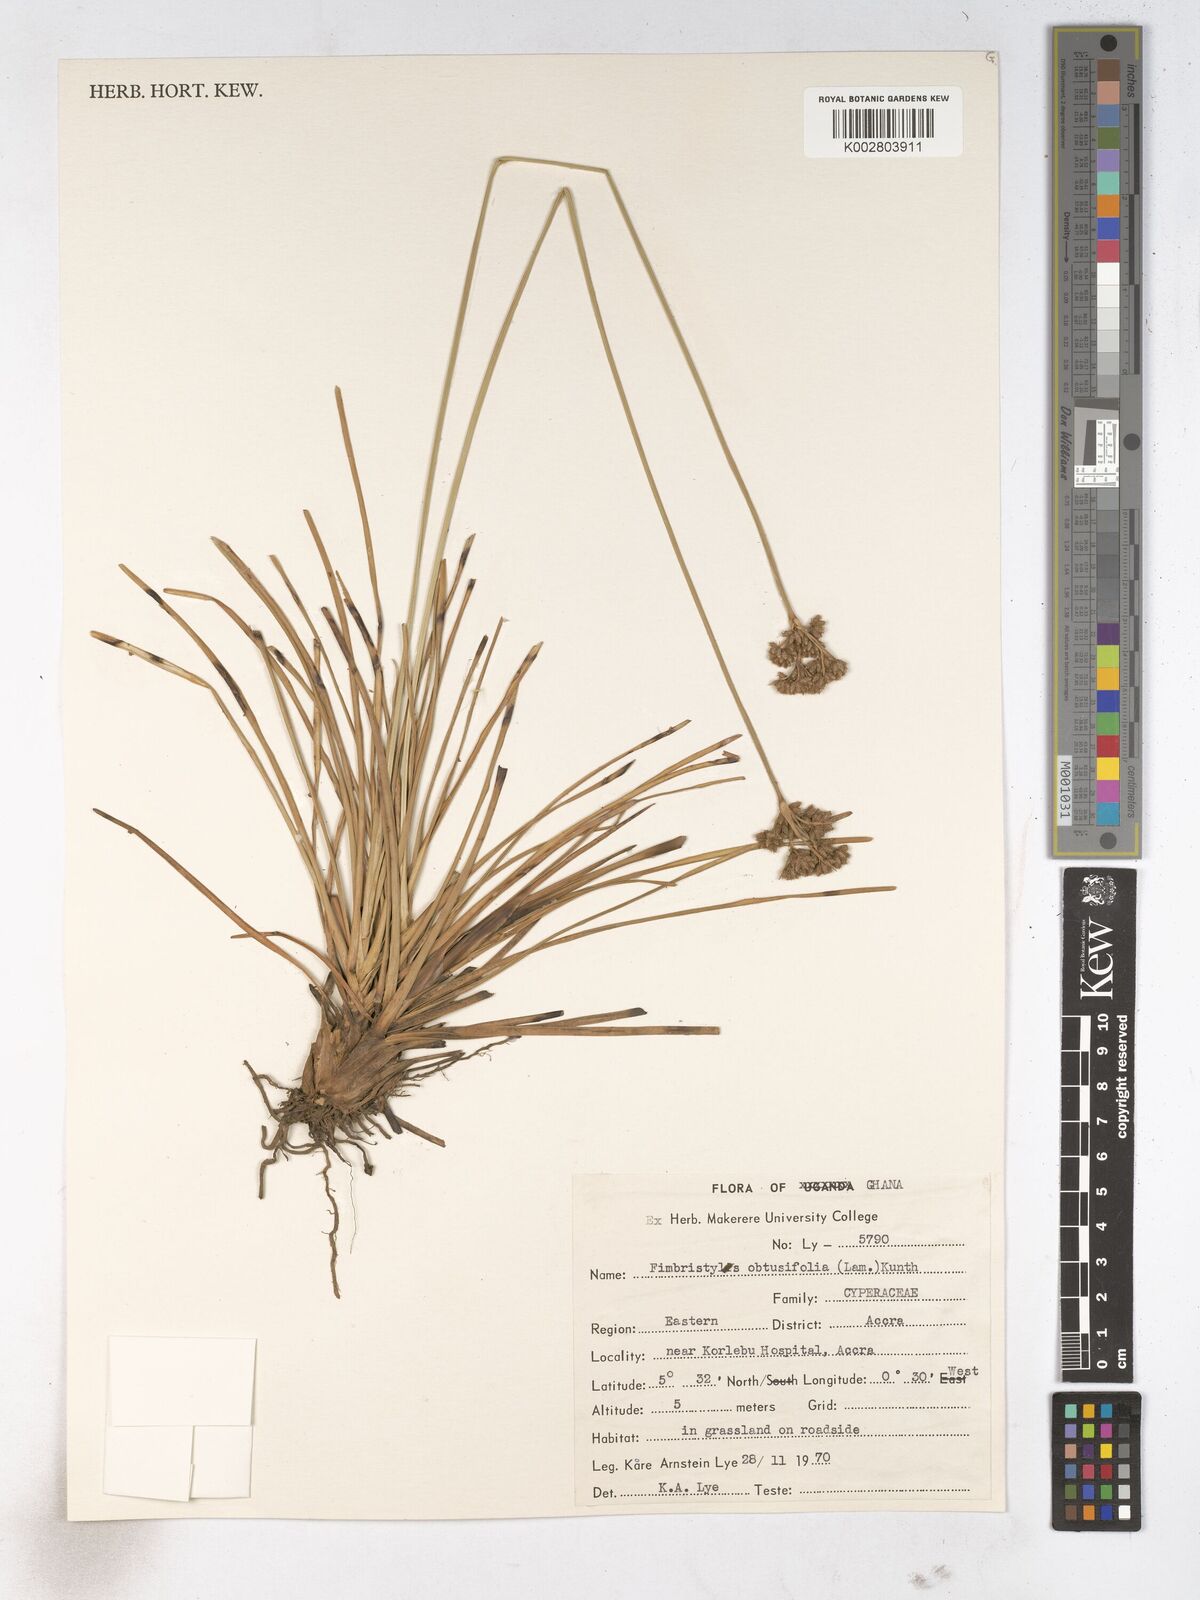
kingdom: Plantae
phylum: Tracheophyta
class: Liliopsida
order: Poales
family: Cyperaceae
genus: Fimbristylis
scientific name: Fimbristylis cymosa
